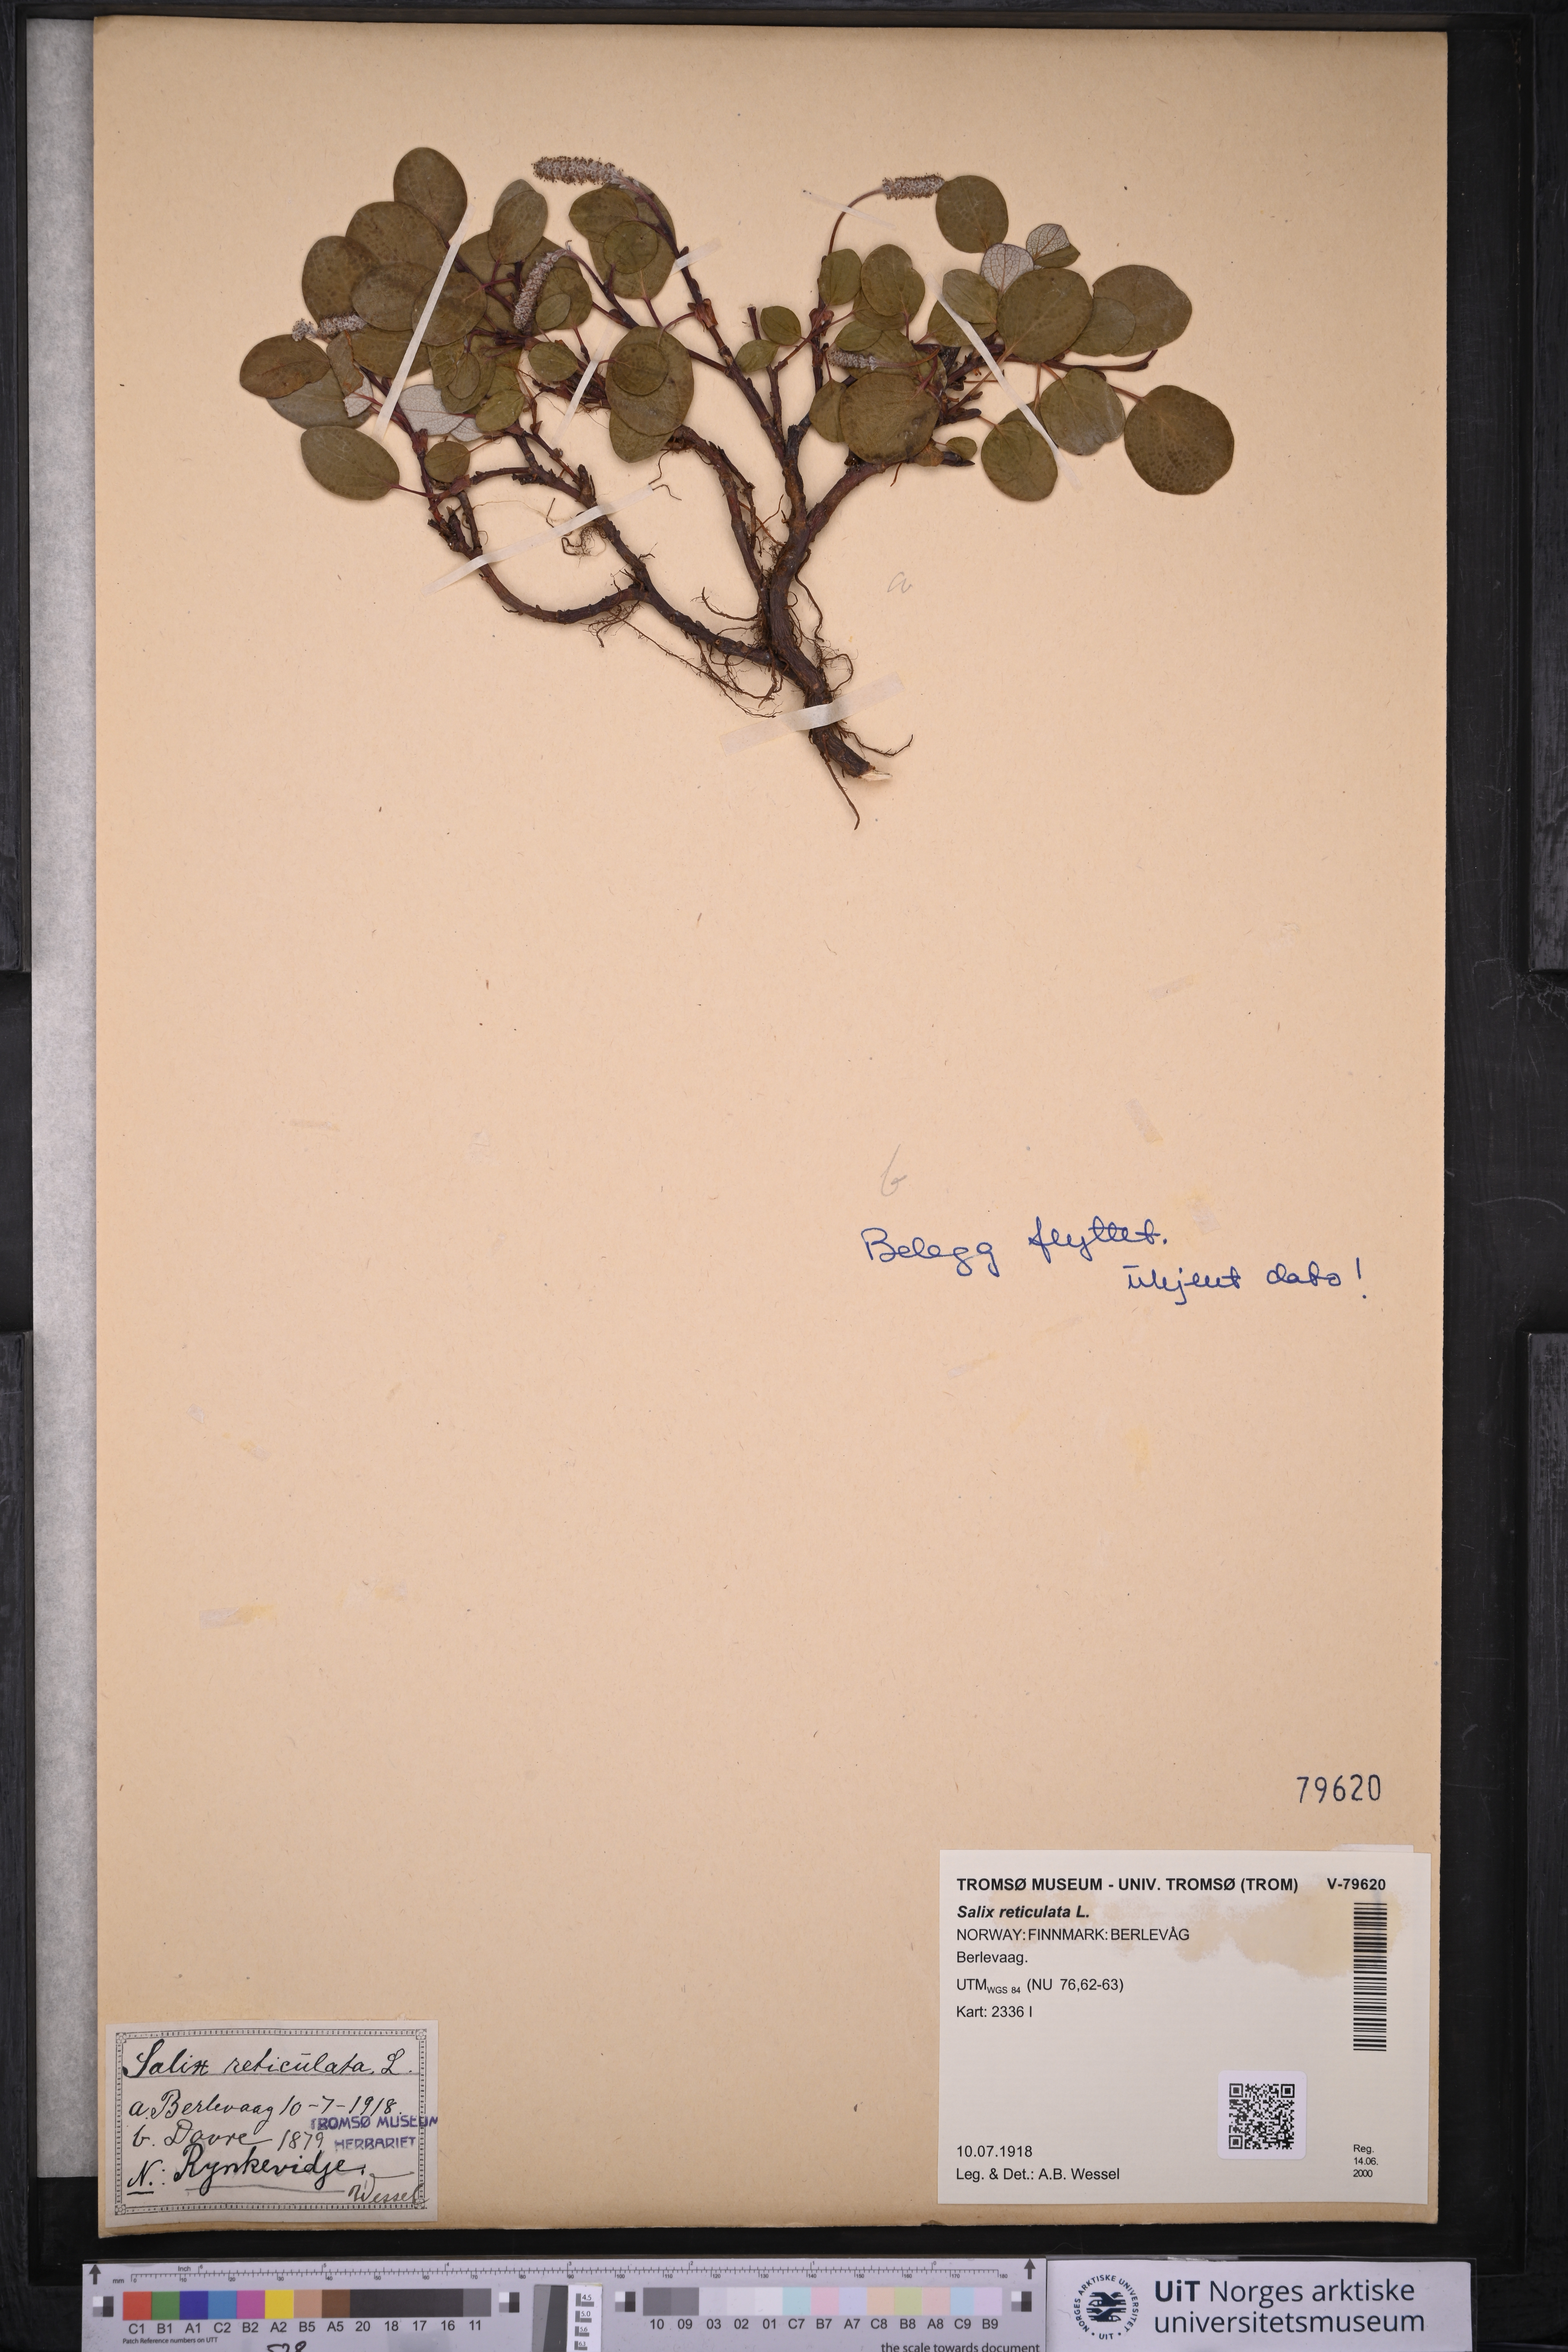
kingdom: Plantae
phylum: Tracheophyta
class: Magnoliopsida
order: Malpighiales
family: Salicaceae
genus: Salix
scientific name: Salix reticulata
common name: Net-leaved willow
